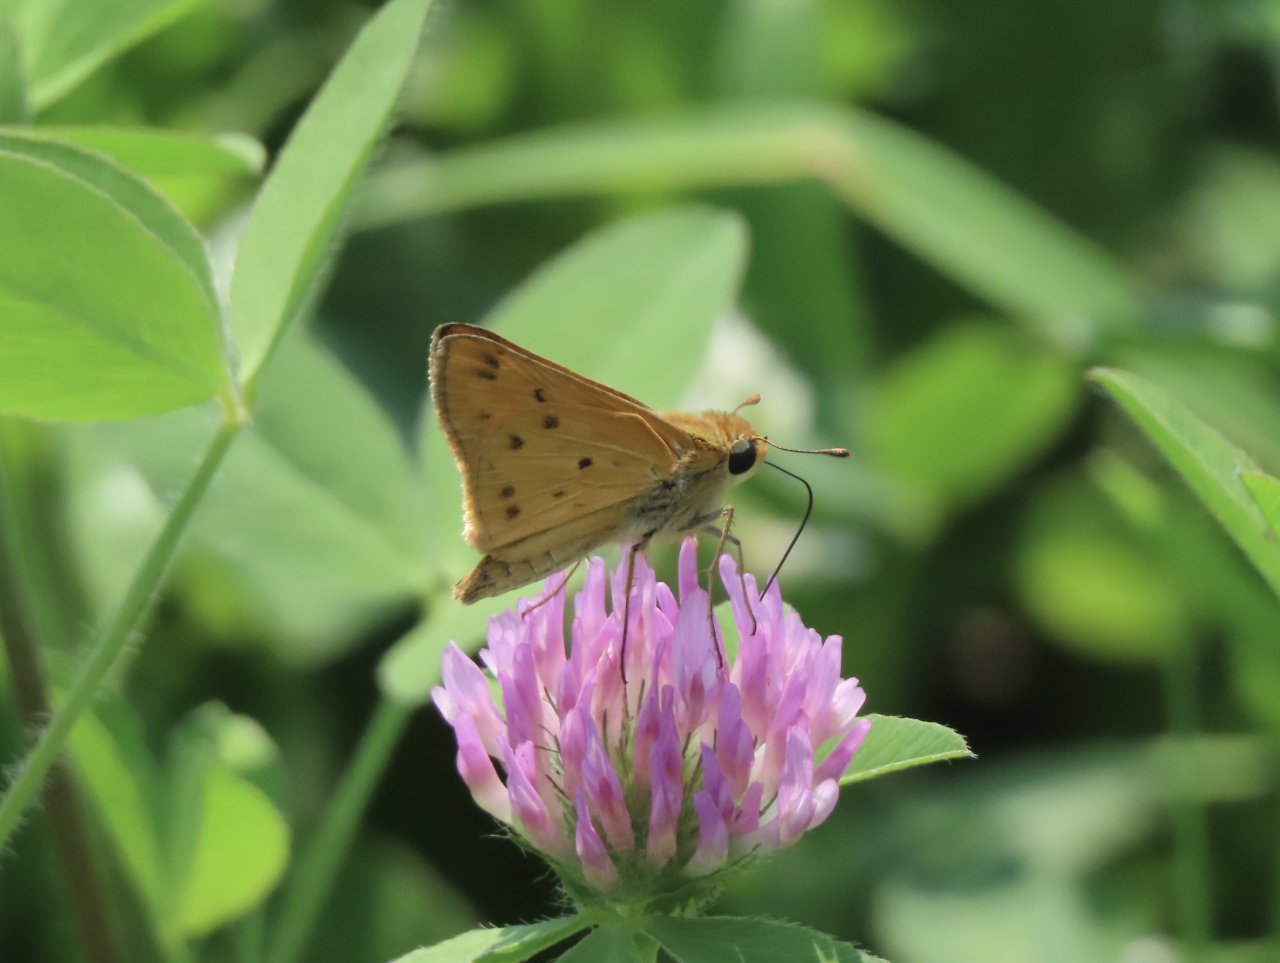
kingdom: Animalia
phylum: Arthropoda
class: Insecta
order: Lepidoptera
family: Hesperiidae
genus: Hylephila
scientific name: Hylephila phyleus
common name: Fiery Skipper
